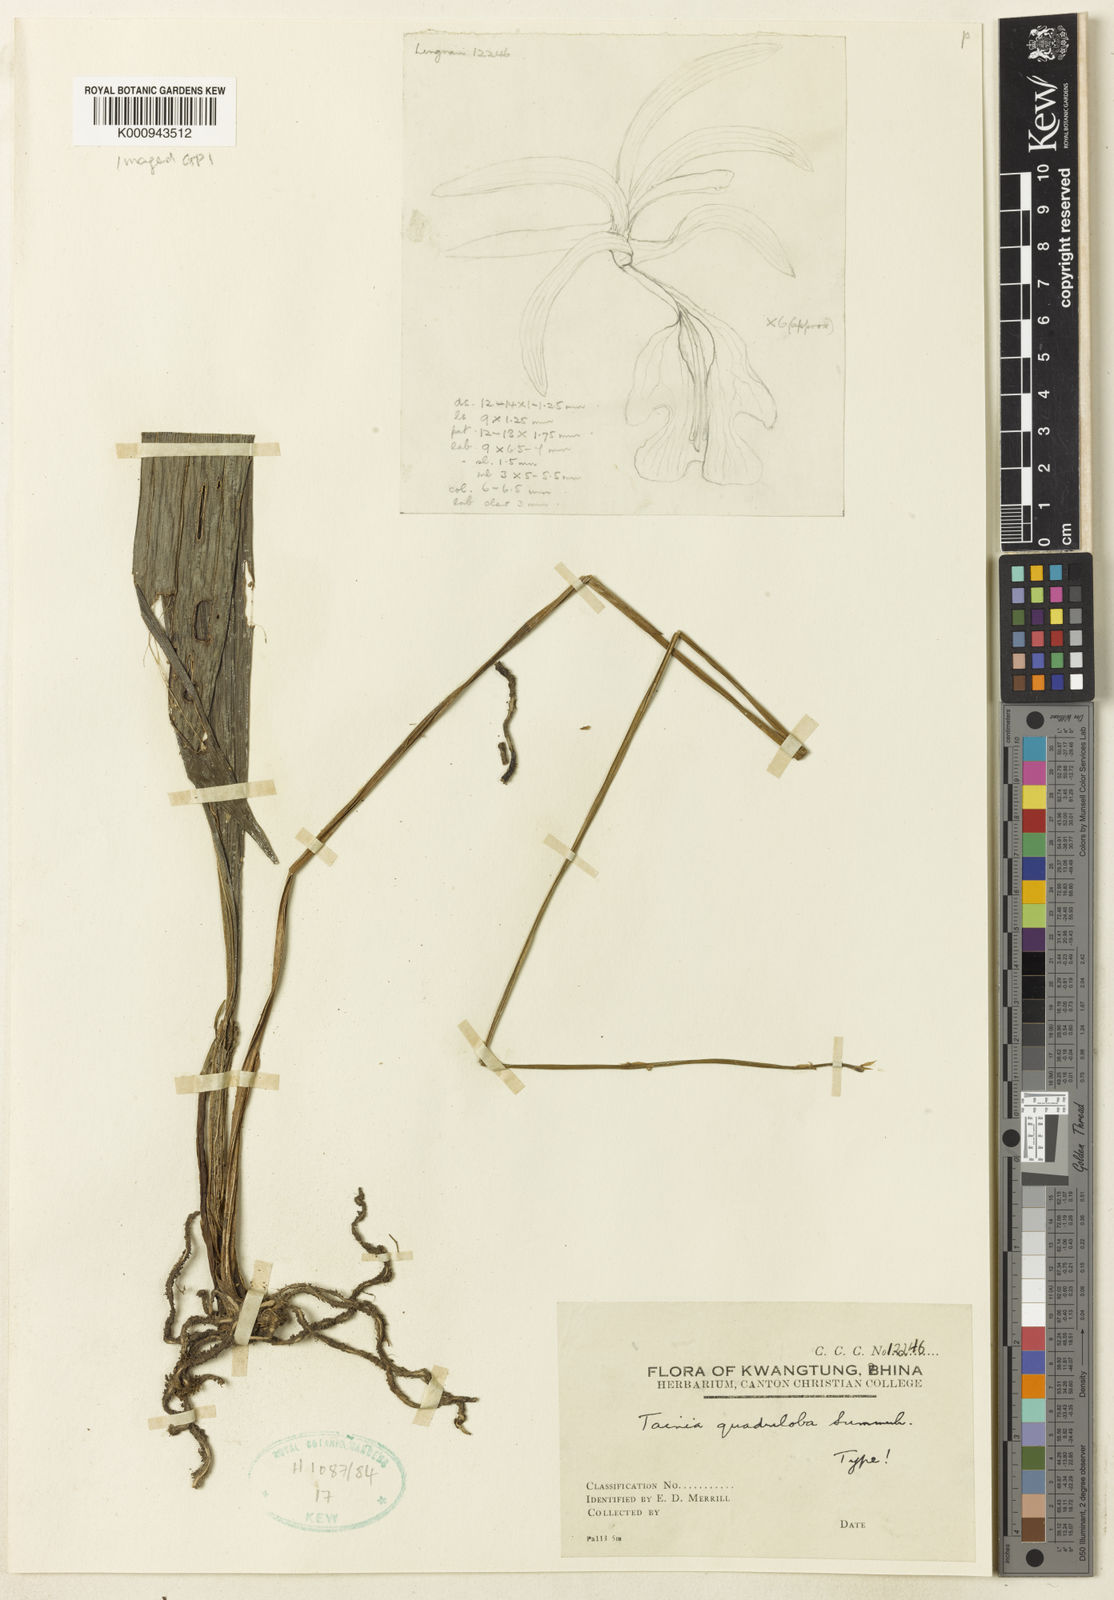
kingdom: Plantae
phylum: Tracheophyta
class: Liliopsida
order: Asparagales
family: Orchidaceae
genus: Tainia
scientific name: Tainia dunnii
